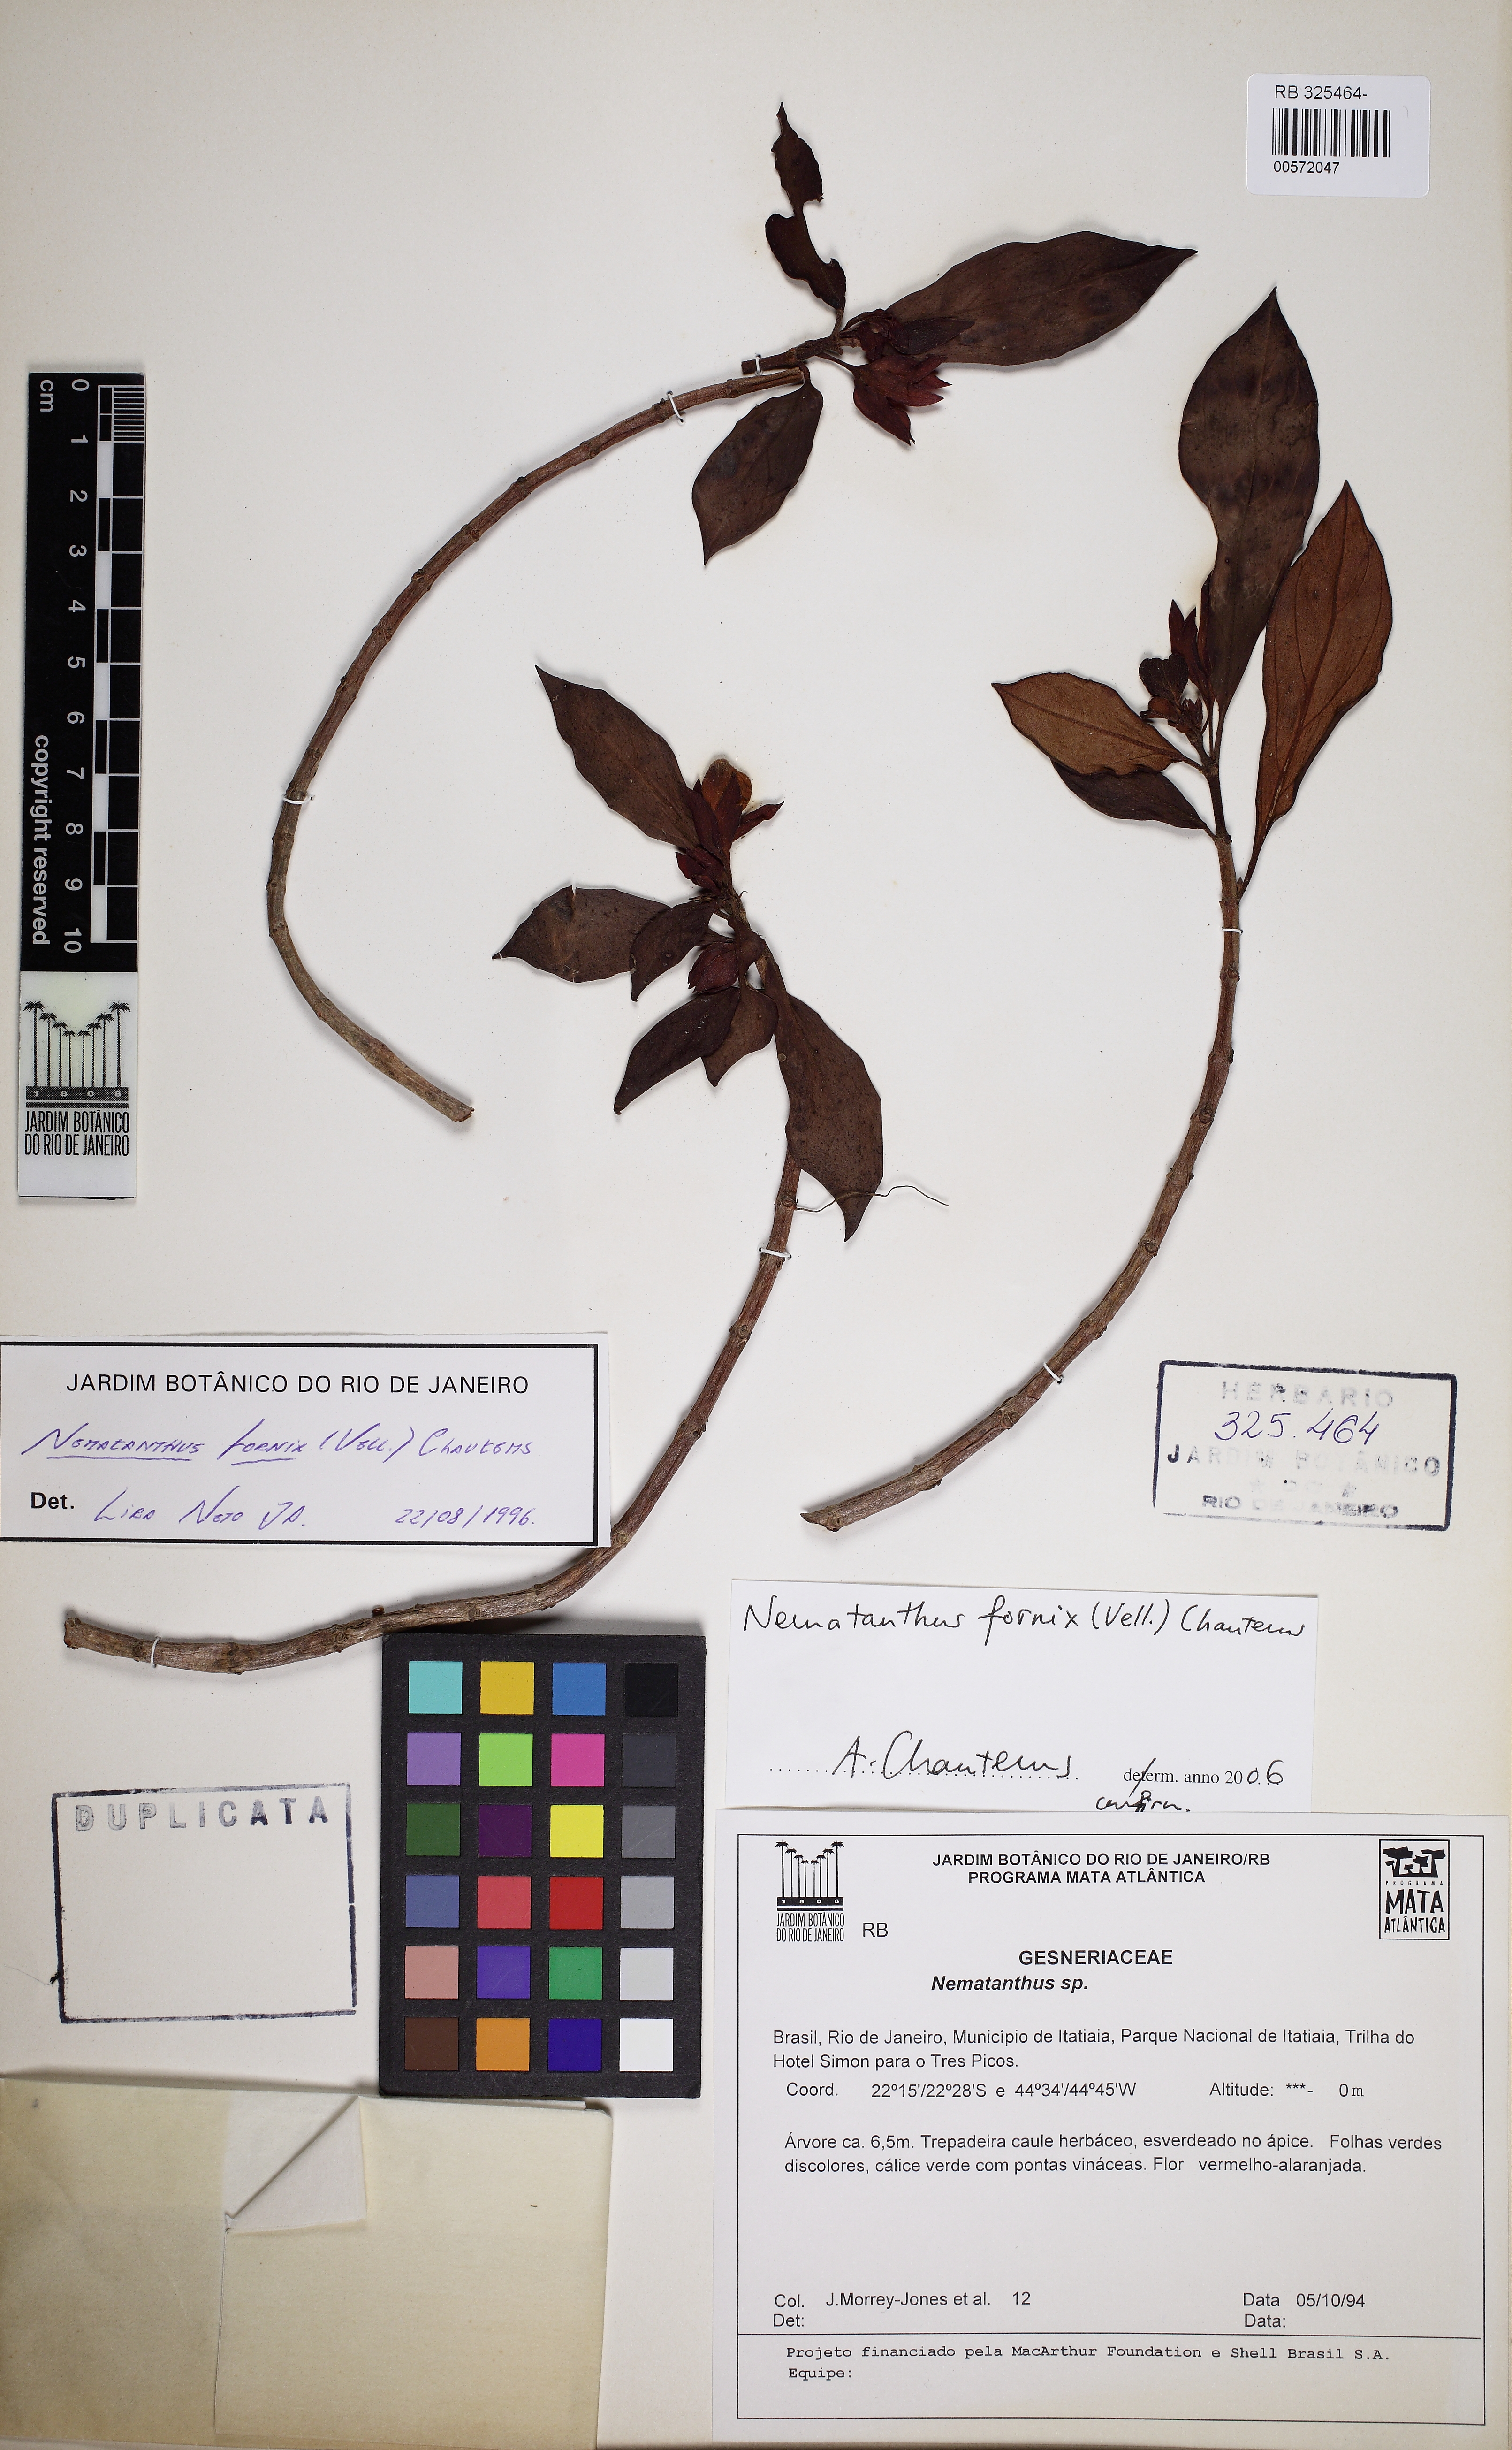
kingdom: Plantae
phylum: Tracheophyta
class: Magnoliopsida
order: Lamiales
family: Gesneriaceae
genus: Nematanthus
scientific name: Nematanthus fornix
